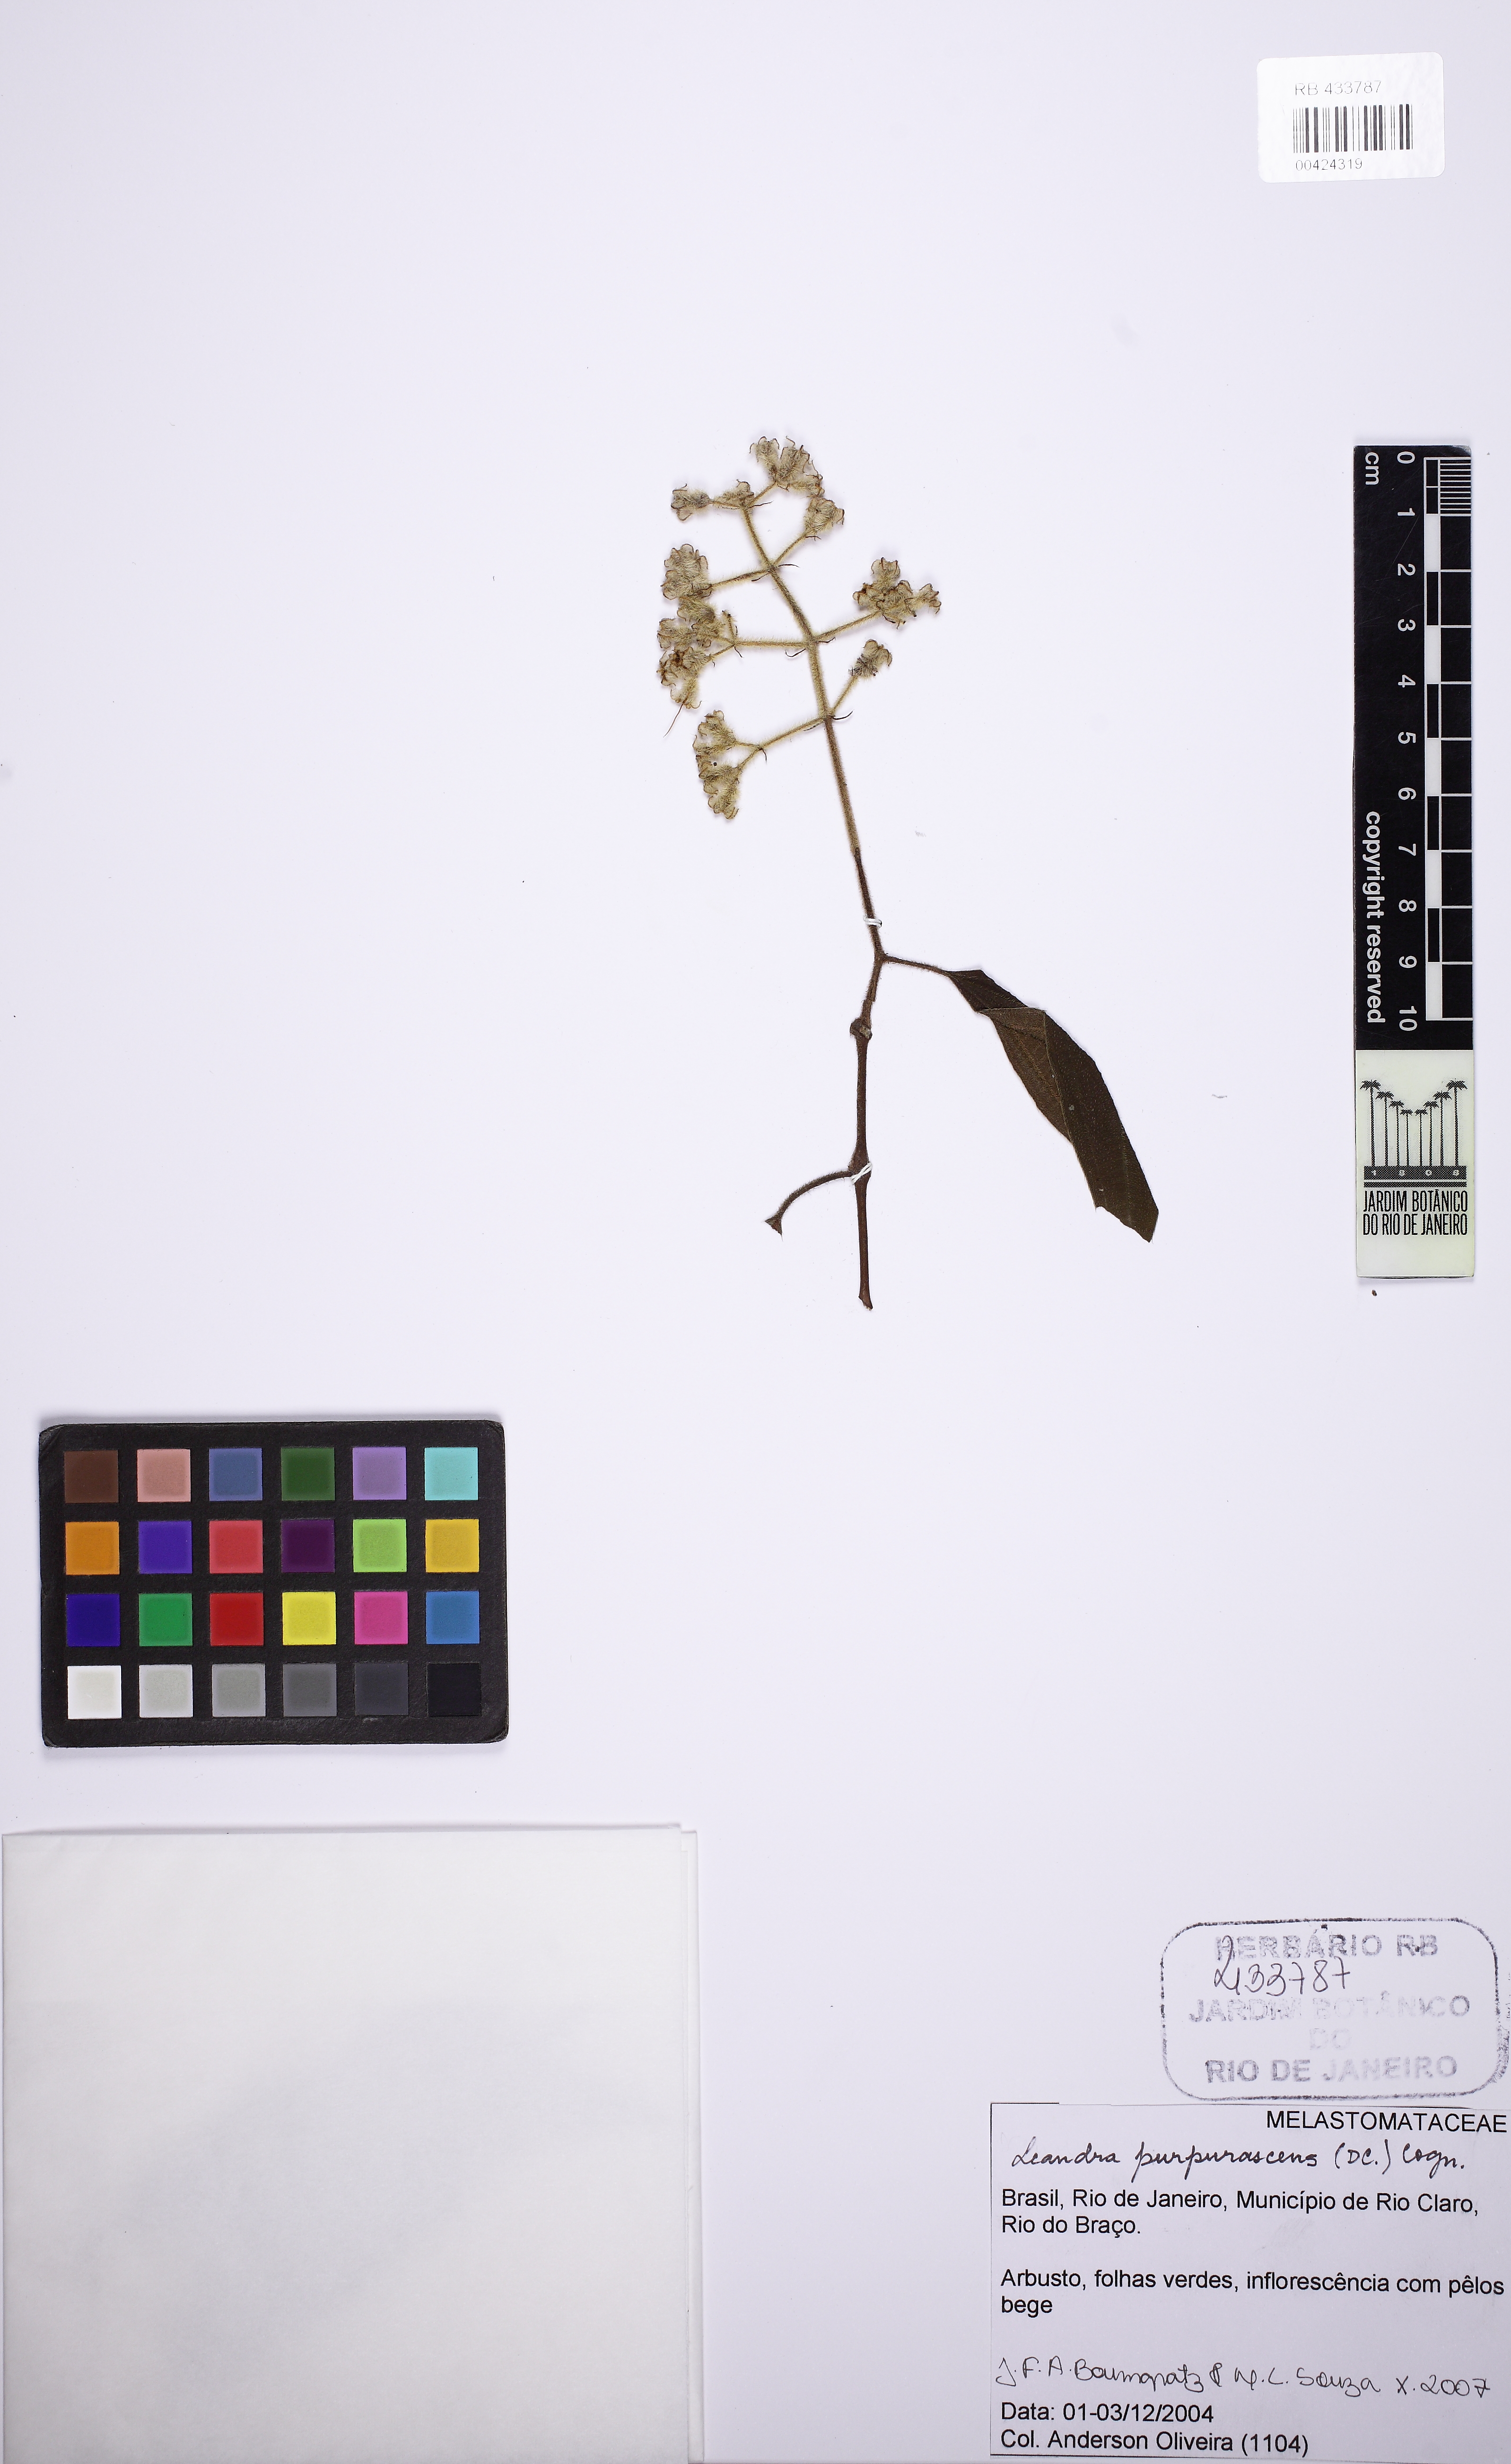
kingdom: Plantae
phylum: Tracheophyta
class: Magnoliopsida
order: Myrtales
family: Melastomataceae
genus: Miconia
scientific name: Miconia microstachya
